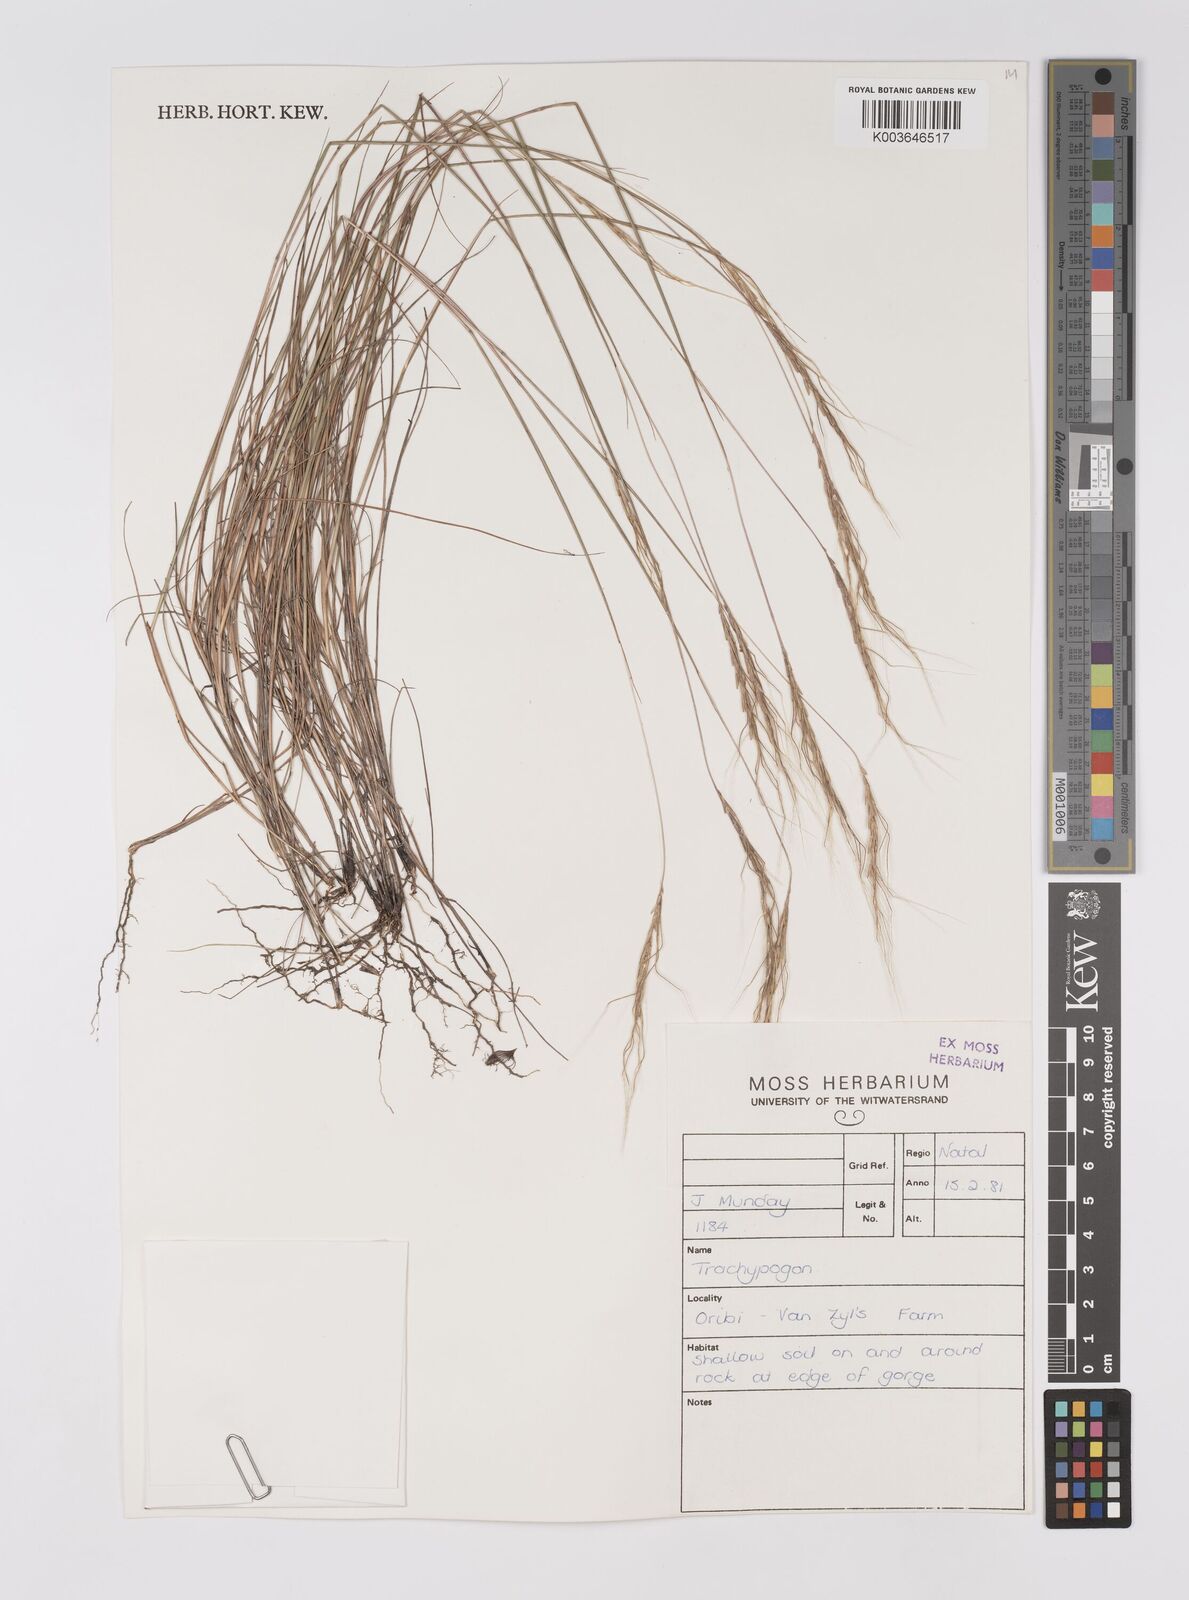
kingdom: Plantae
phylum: Tracheophyta
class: Liliopsida
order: Poales
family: Poaceae
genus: Trachypogon
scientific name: Trachypogon spicatus
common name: Crinkle-awn
